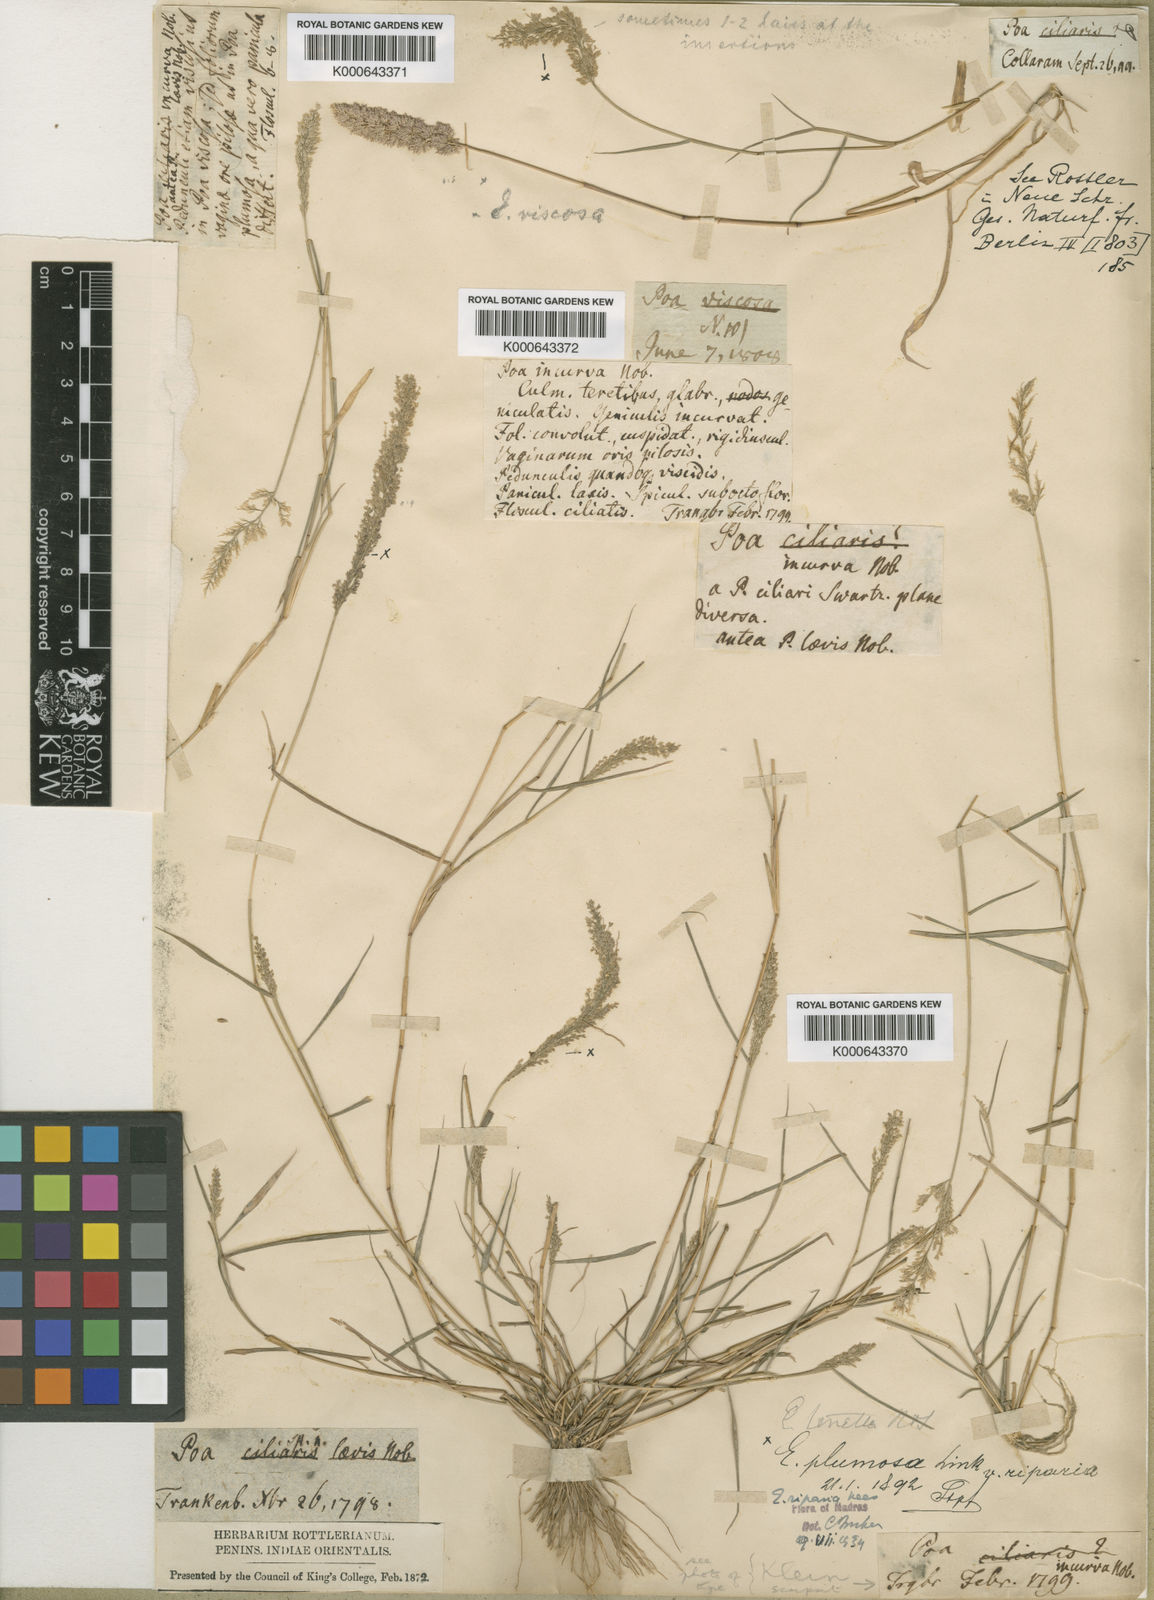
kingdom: Plantae
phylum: Tracheophyta
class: Liliopsida
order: Poales
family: Poaceae
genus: Eragrostis
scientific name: Eragrostis riparia
